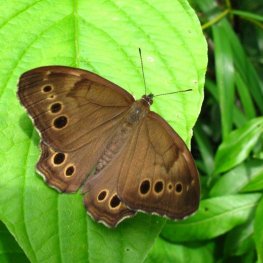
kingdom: Animalia
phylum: Arthropoda
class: Insecta
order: Lepidoptera
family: Nymphalidae
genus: Lethe
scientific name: Lethe anthedon
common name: Northern Pearly-Eye
